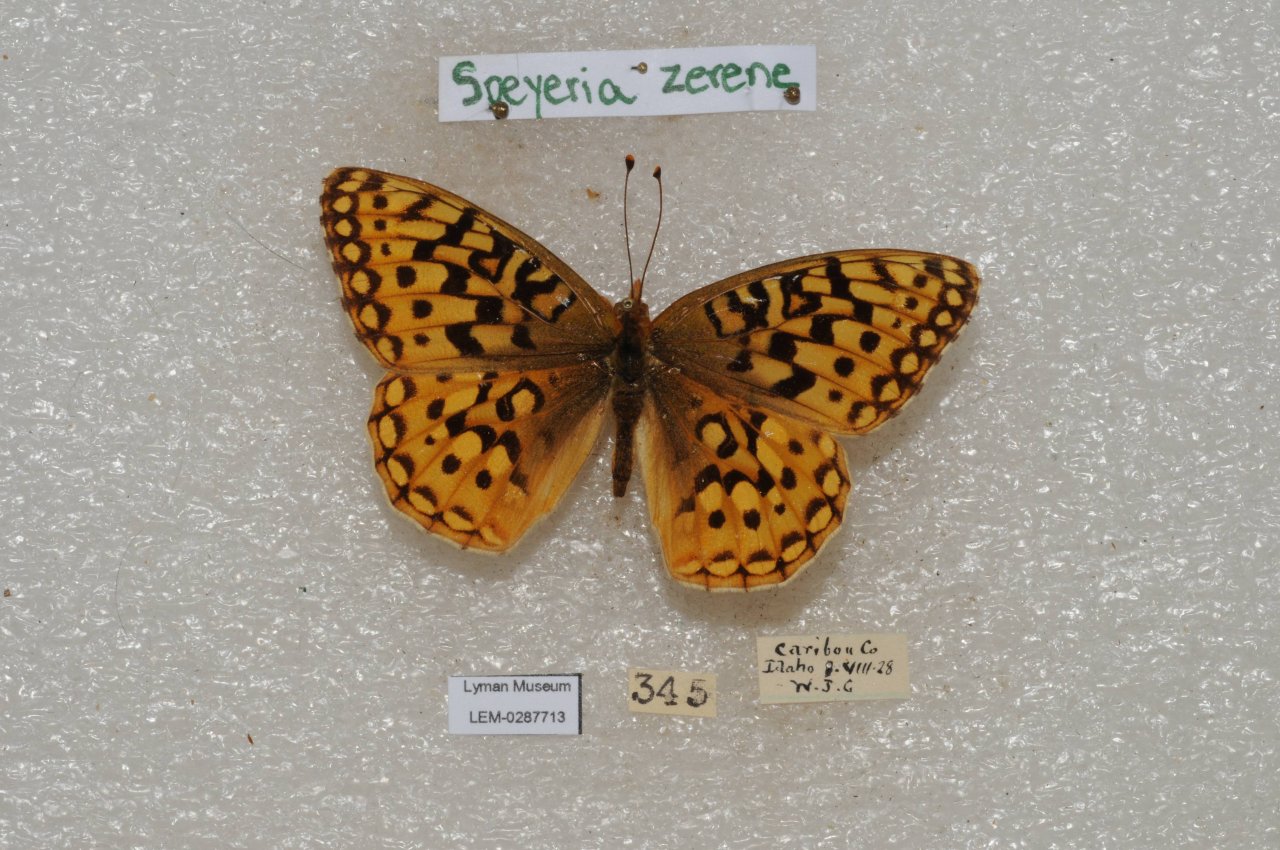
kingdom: Animalia
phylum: Arthropoda
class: Insecta
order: Lepidoptera
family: Nymphalidae
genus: Speyeria
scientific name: Speyeria zerene
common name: Zerene Fritillary
